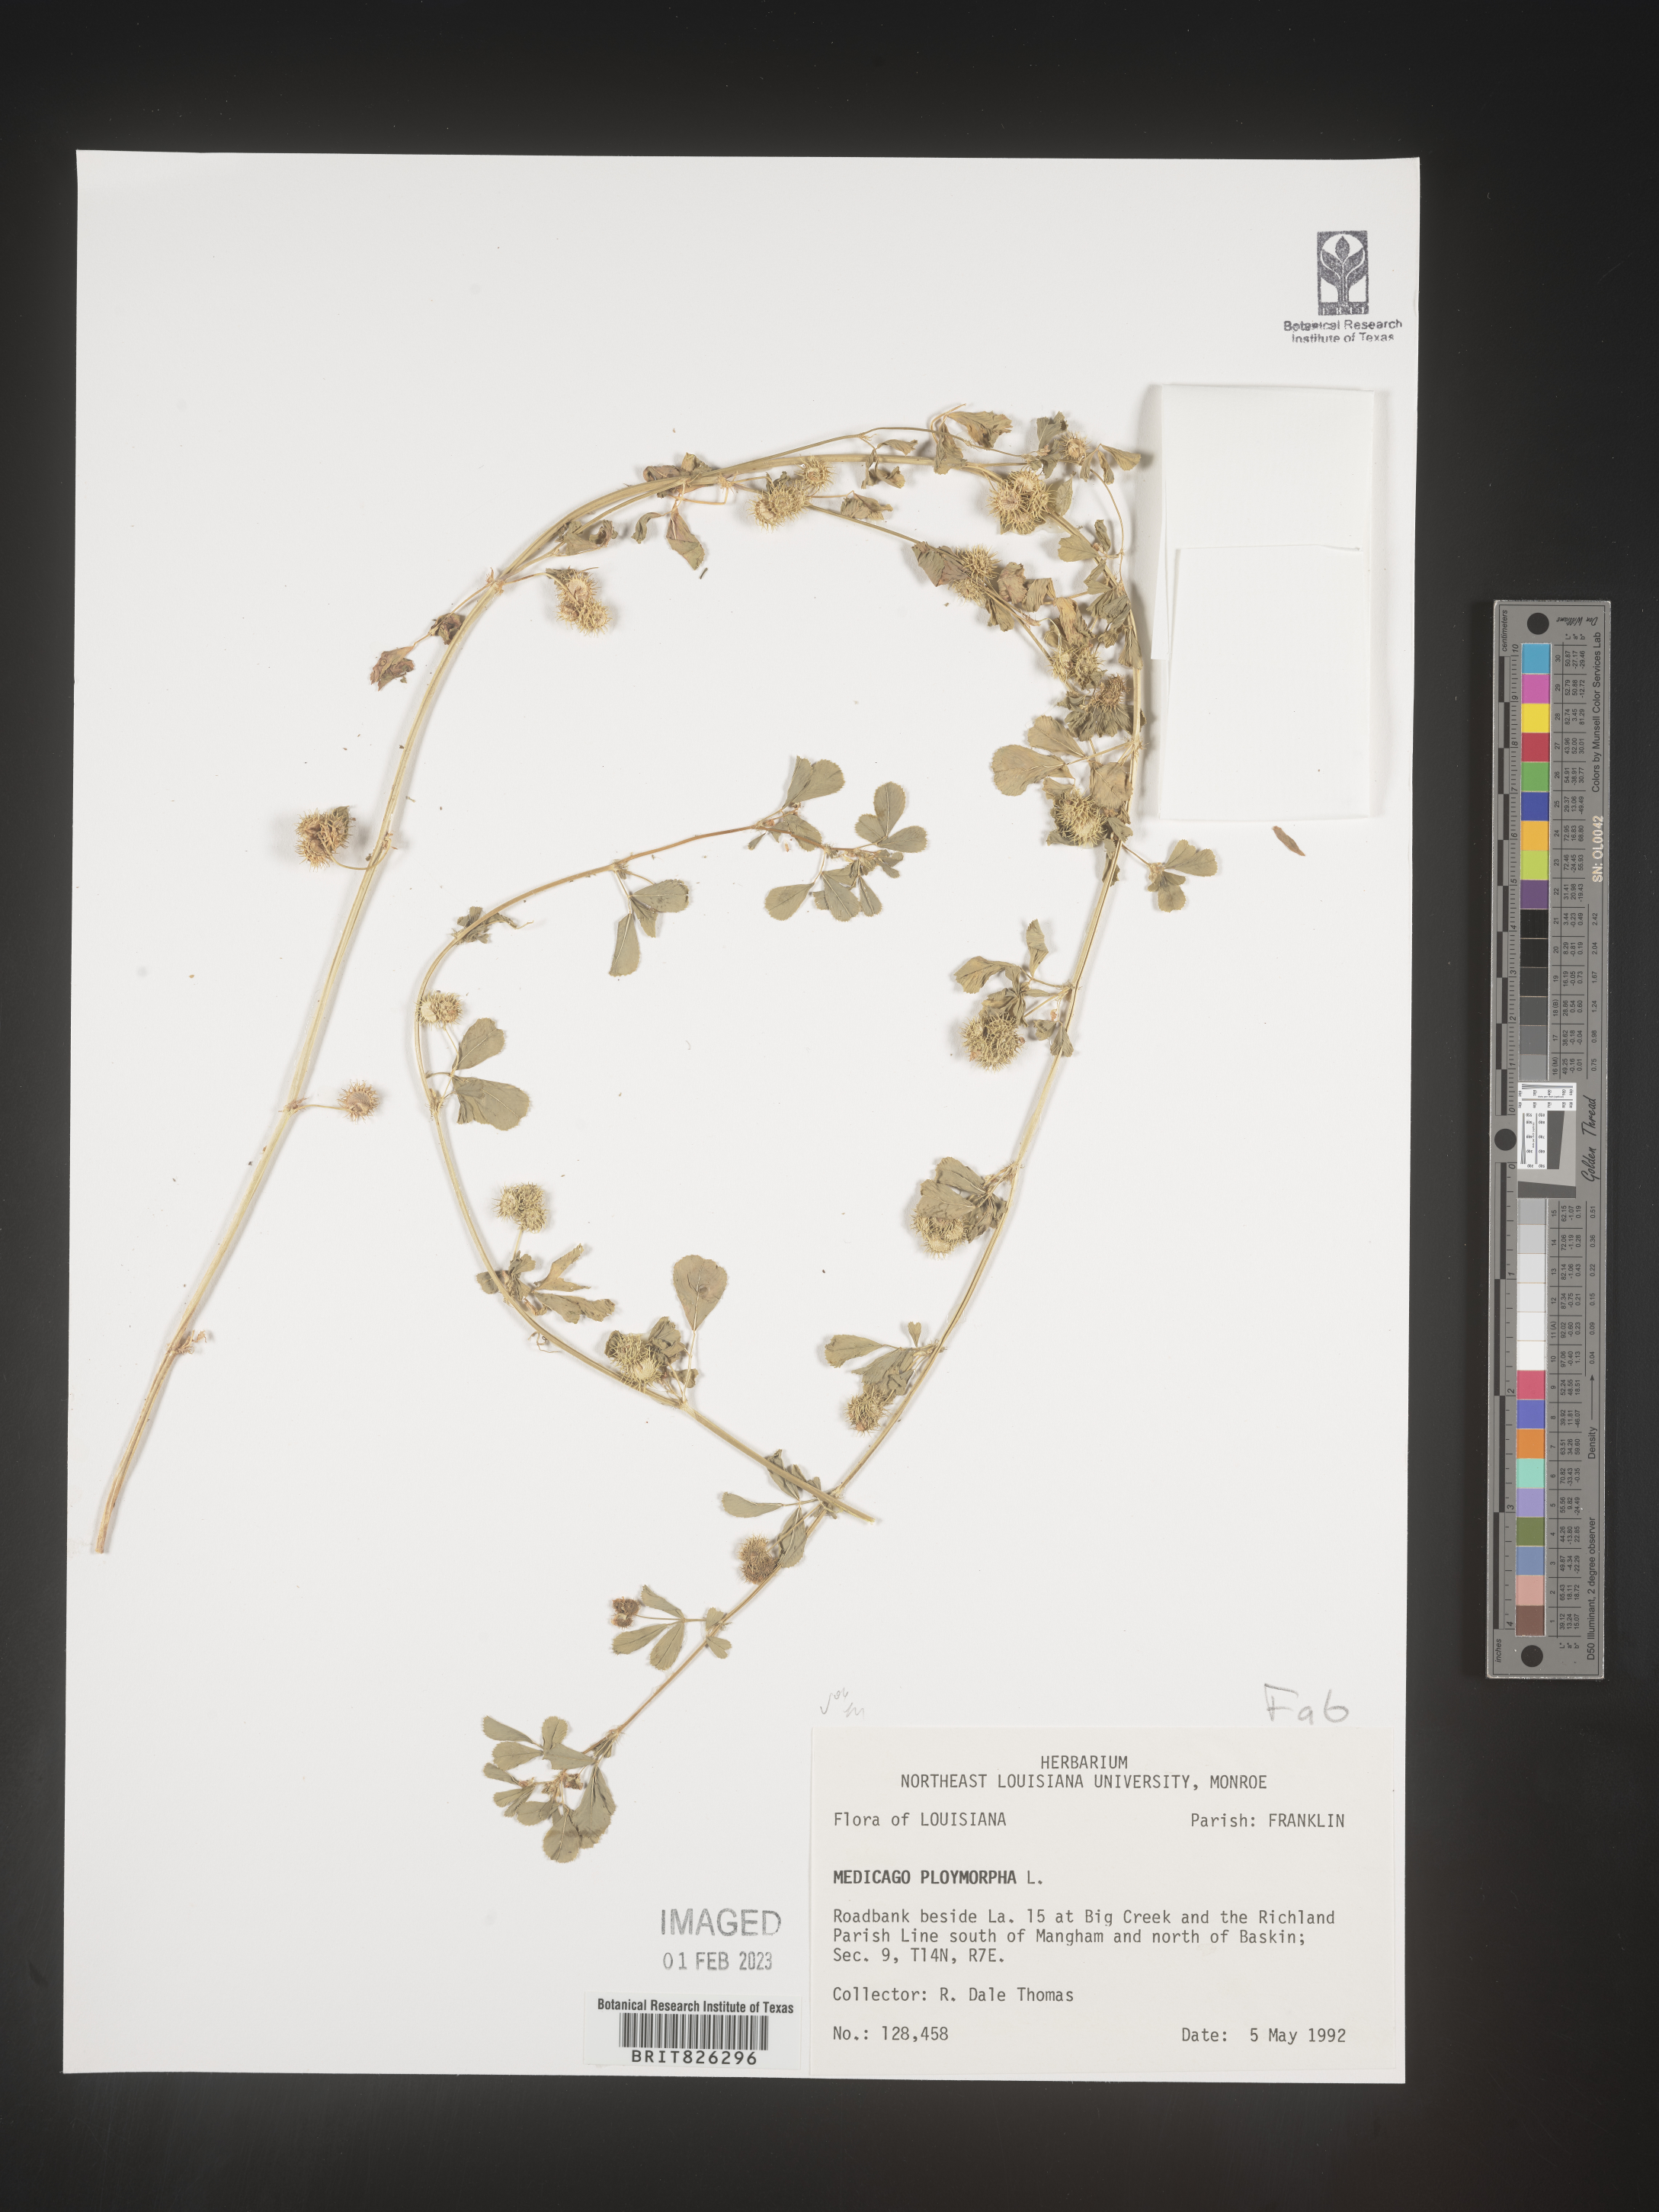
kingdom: Plantae
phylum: Tracheophyta
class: Magnoliopsida
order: Fabales
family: Fabaceae
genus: Medicago
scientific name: Medicago polymorpha
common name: Burclover
